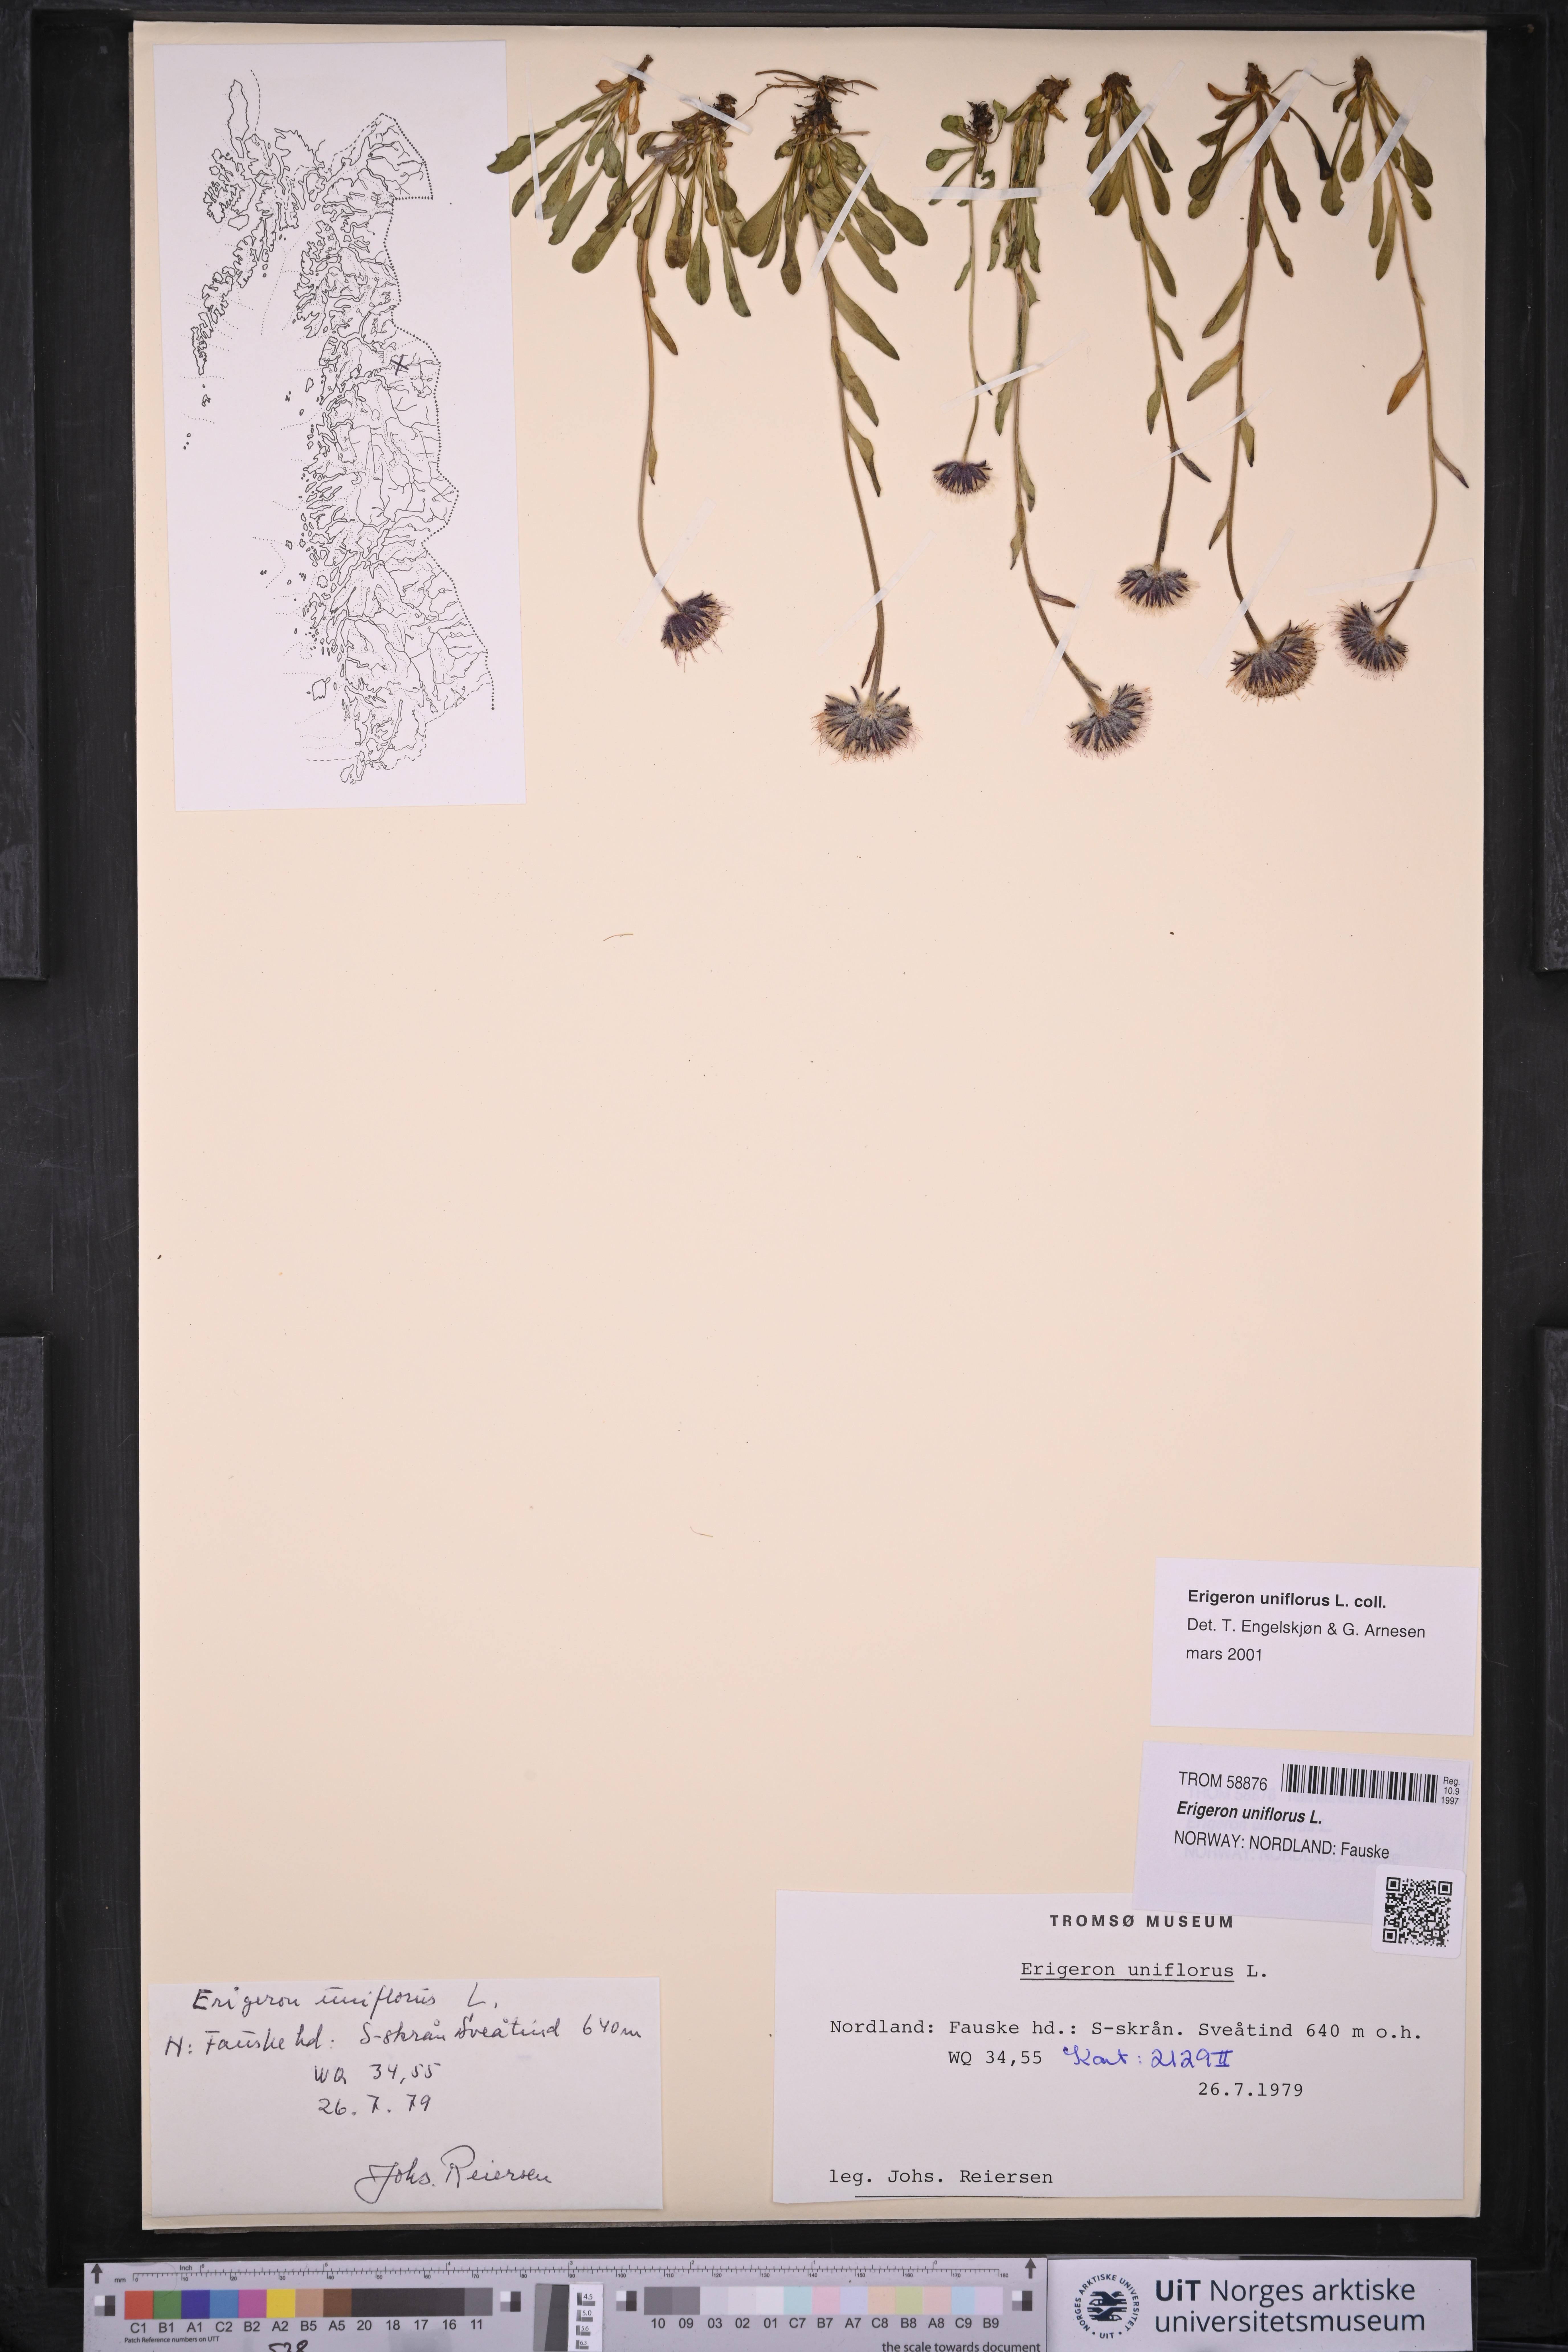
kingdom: Plantae
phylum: Tracheophyta
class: Magnoliopsida
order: Asterales
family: Asteraceae
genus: Erigeron
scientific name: Erigeron uniflorus
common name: Northern daisy
